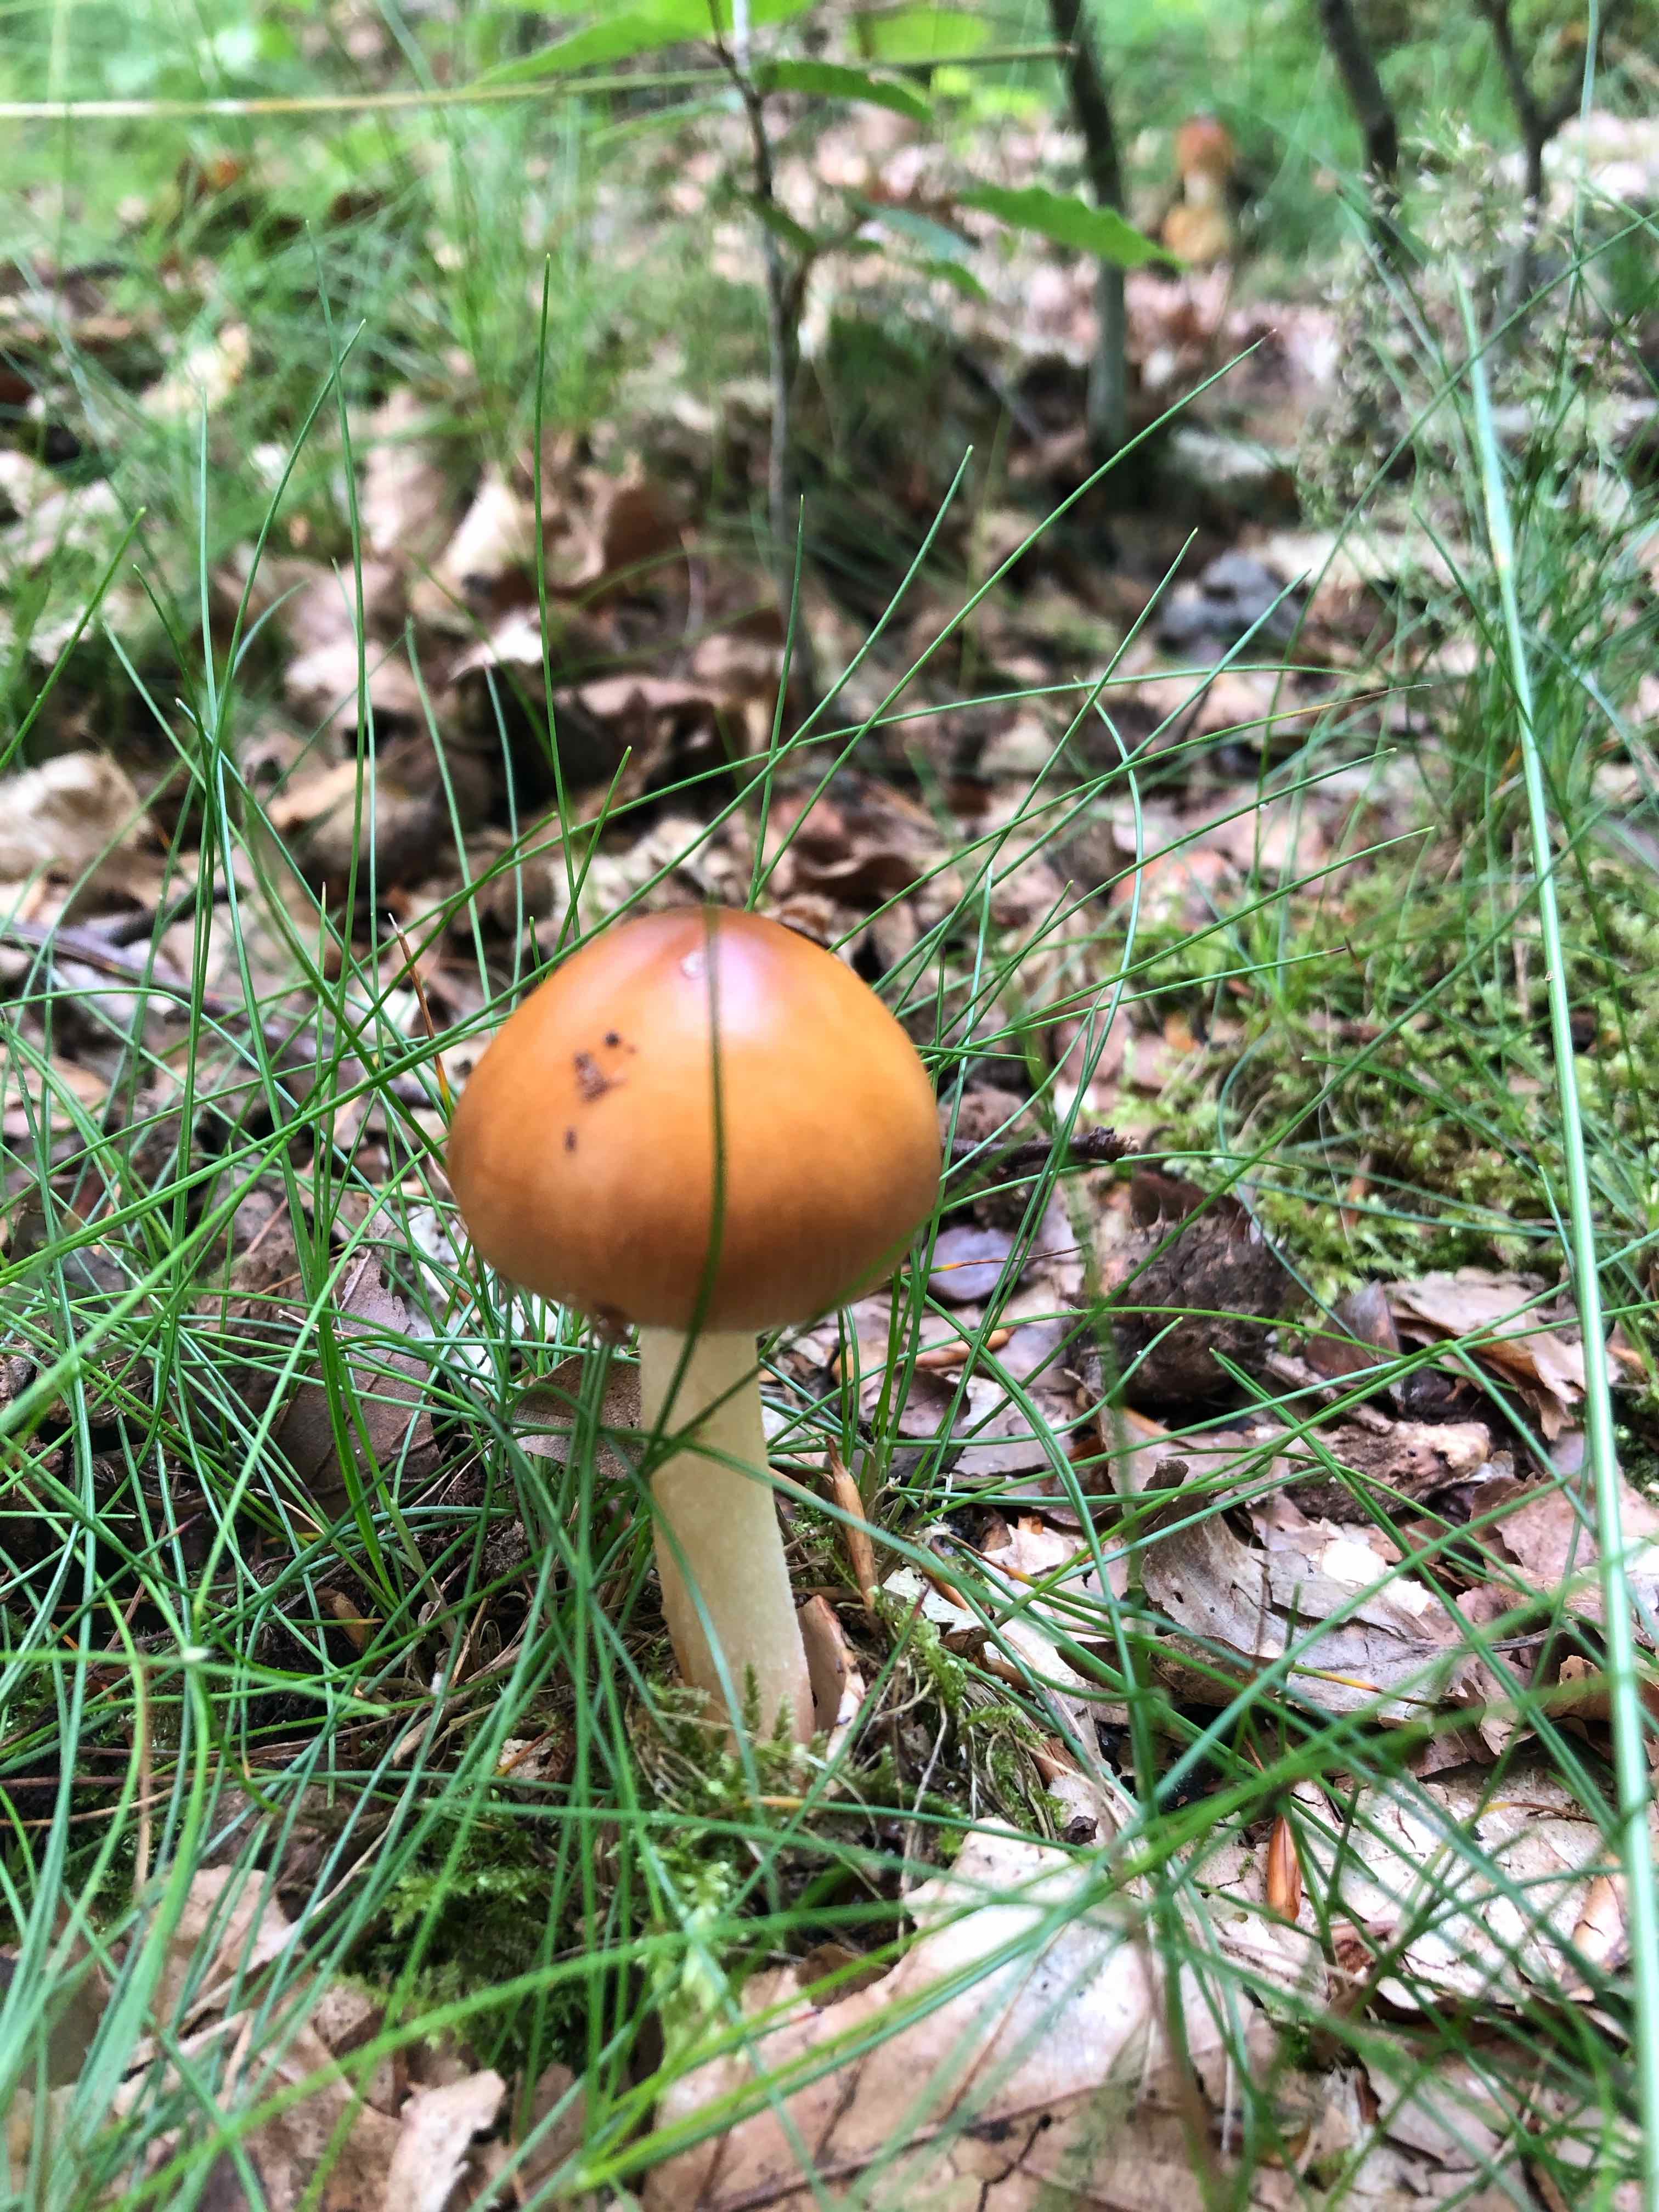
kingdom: Fungi
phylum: Basidiomycota
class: Agaricomycetes
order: Agaricales
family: Amanitaceae
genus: Amanita
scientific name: Amanita fulva
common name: brun kam-fluesvamp
